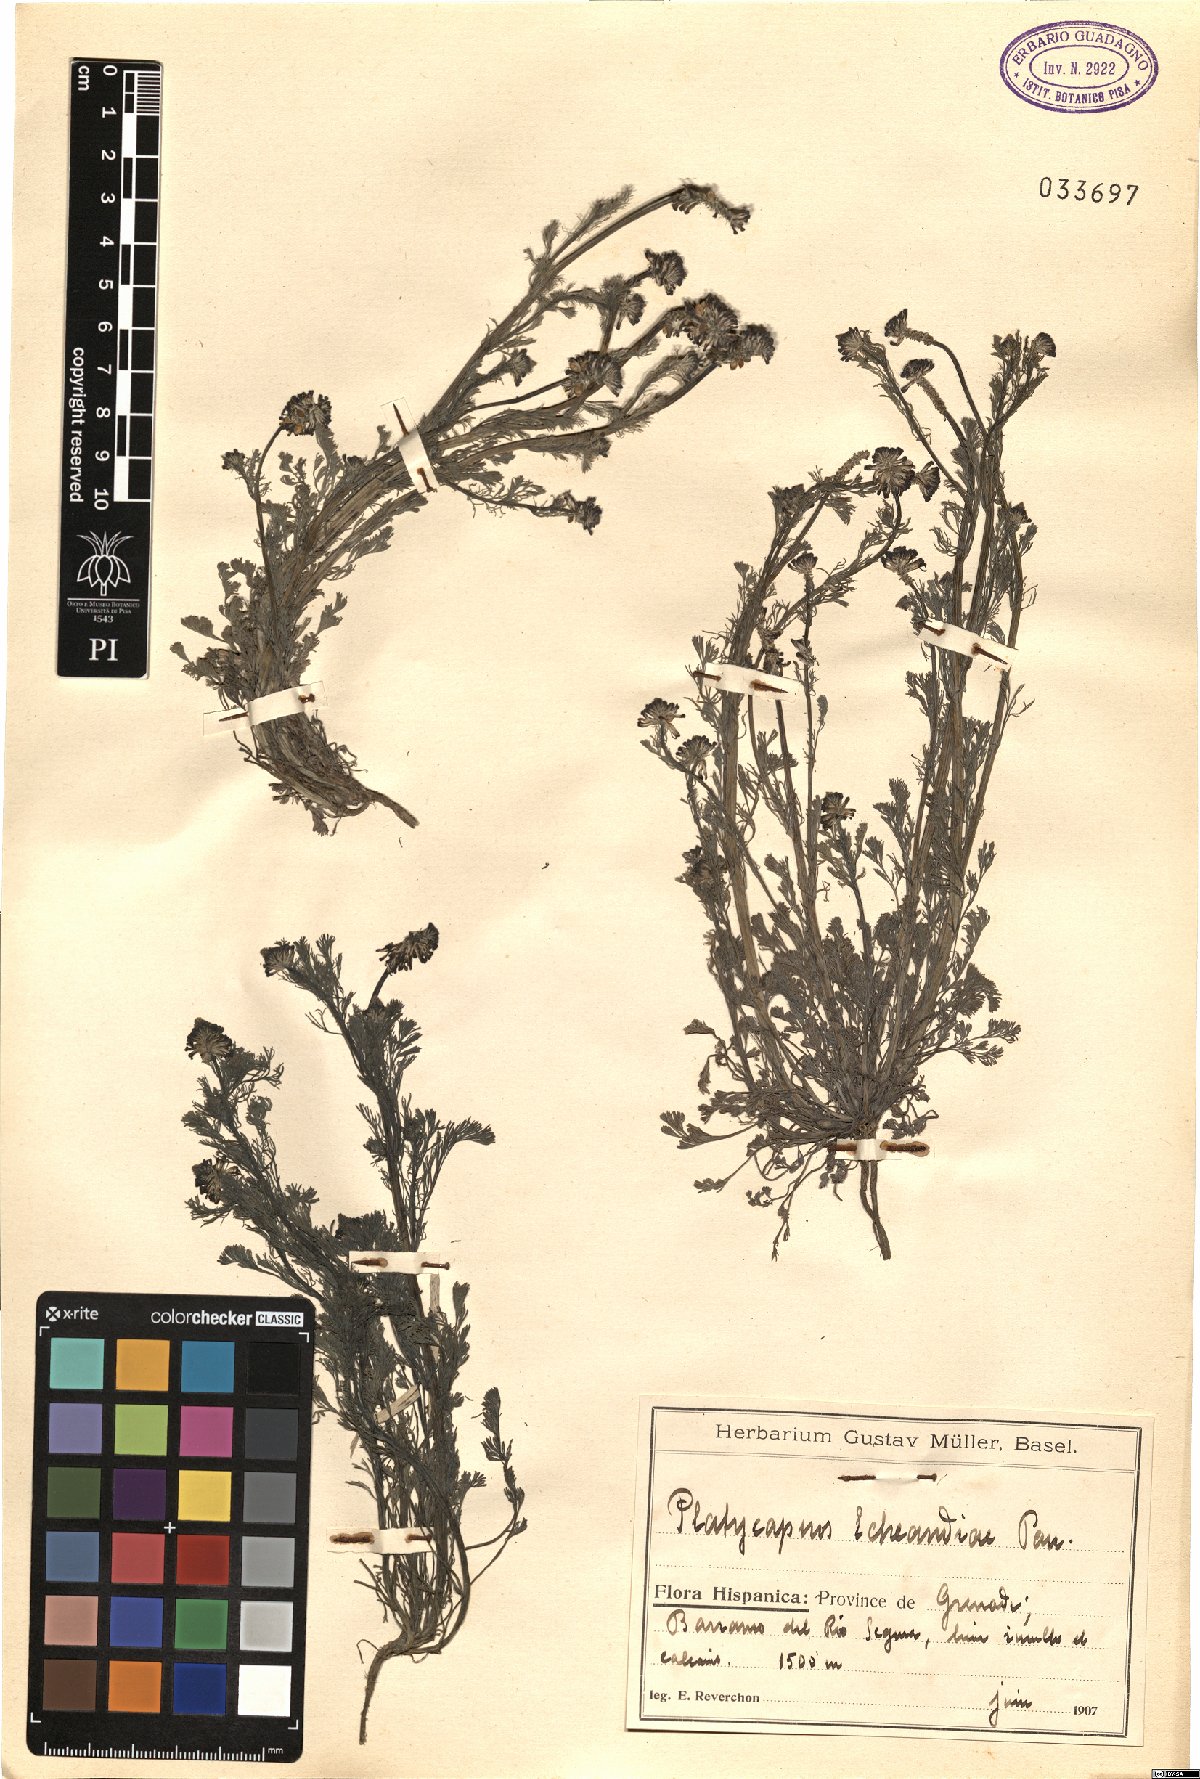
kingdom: Plantae
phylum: Tracheophyta
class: Magnoliopsida
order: Ranunculales
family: Papaveraceae
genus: Platycapnos
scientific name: Platycapnos spicata
